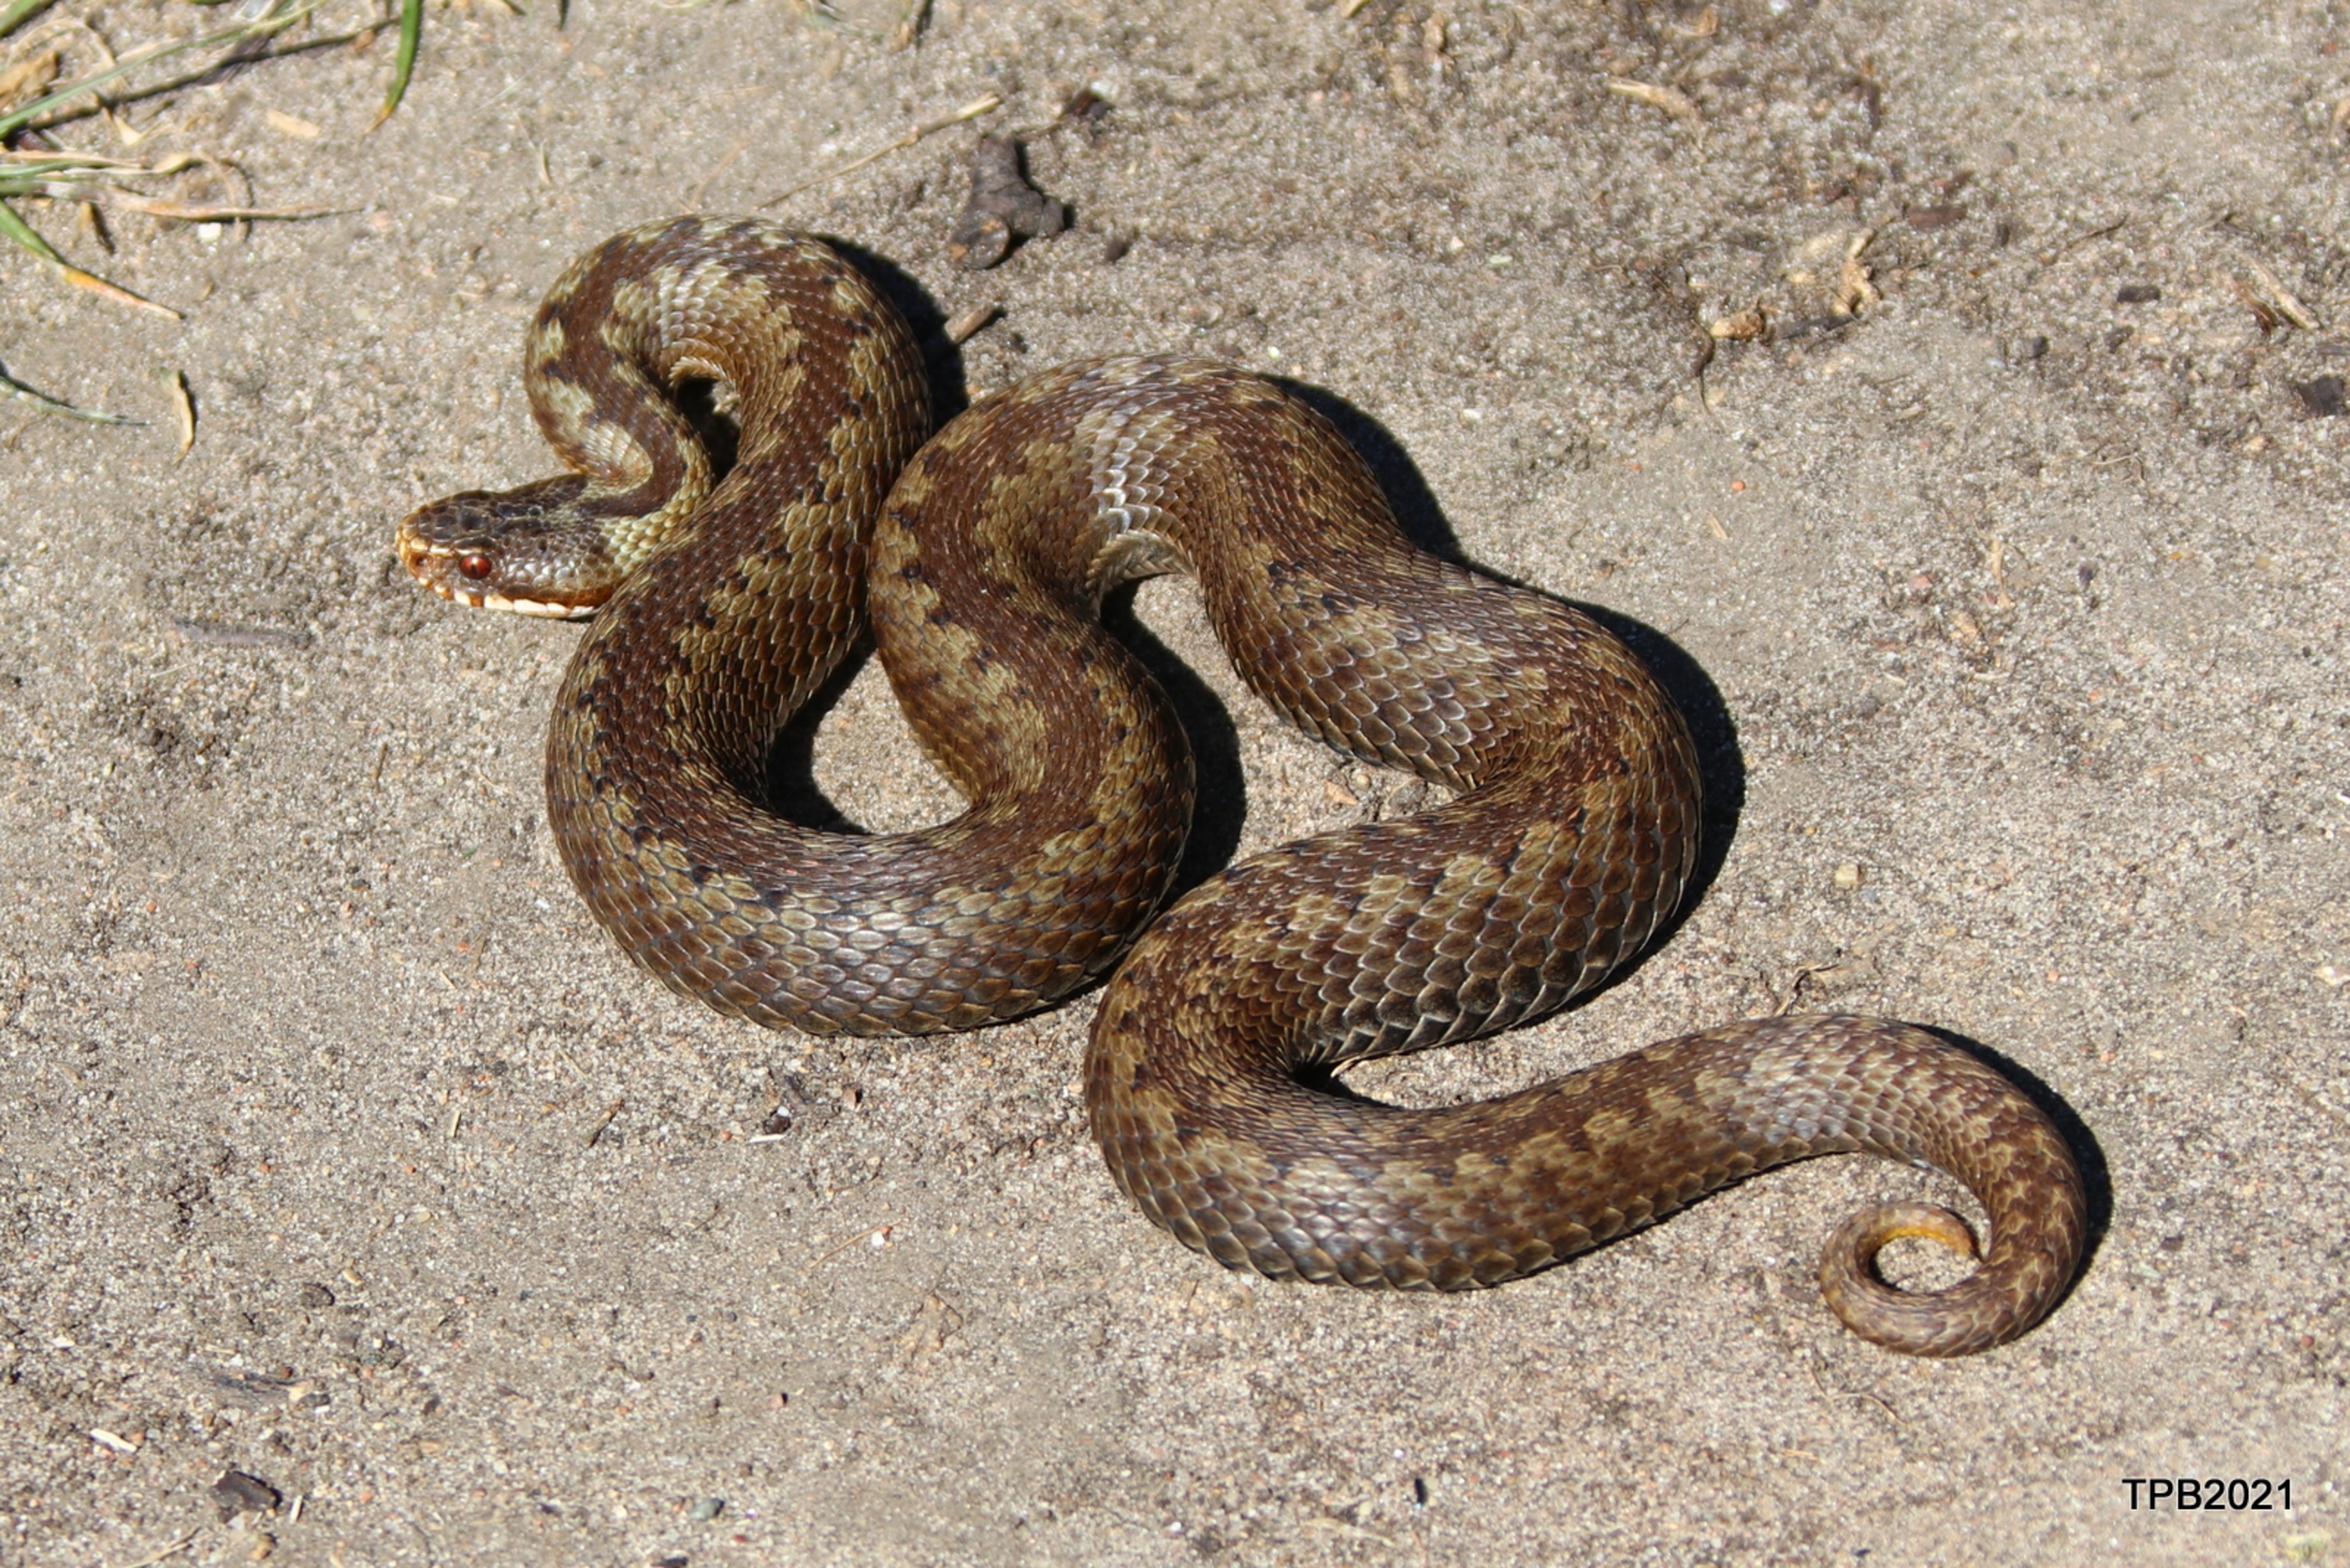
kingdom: Animalia
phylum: Chordata
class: Squamata
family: Viperidae
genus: Vipera
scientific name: Vipera berus
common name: Hugorm
